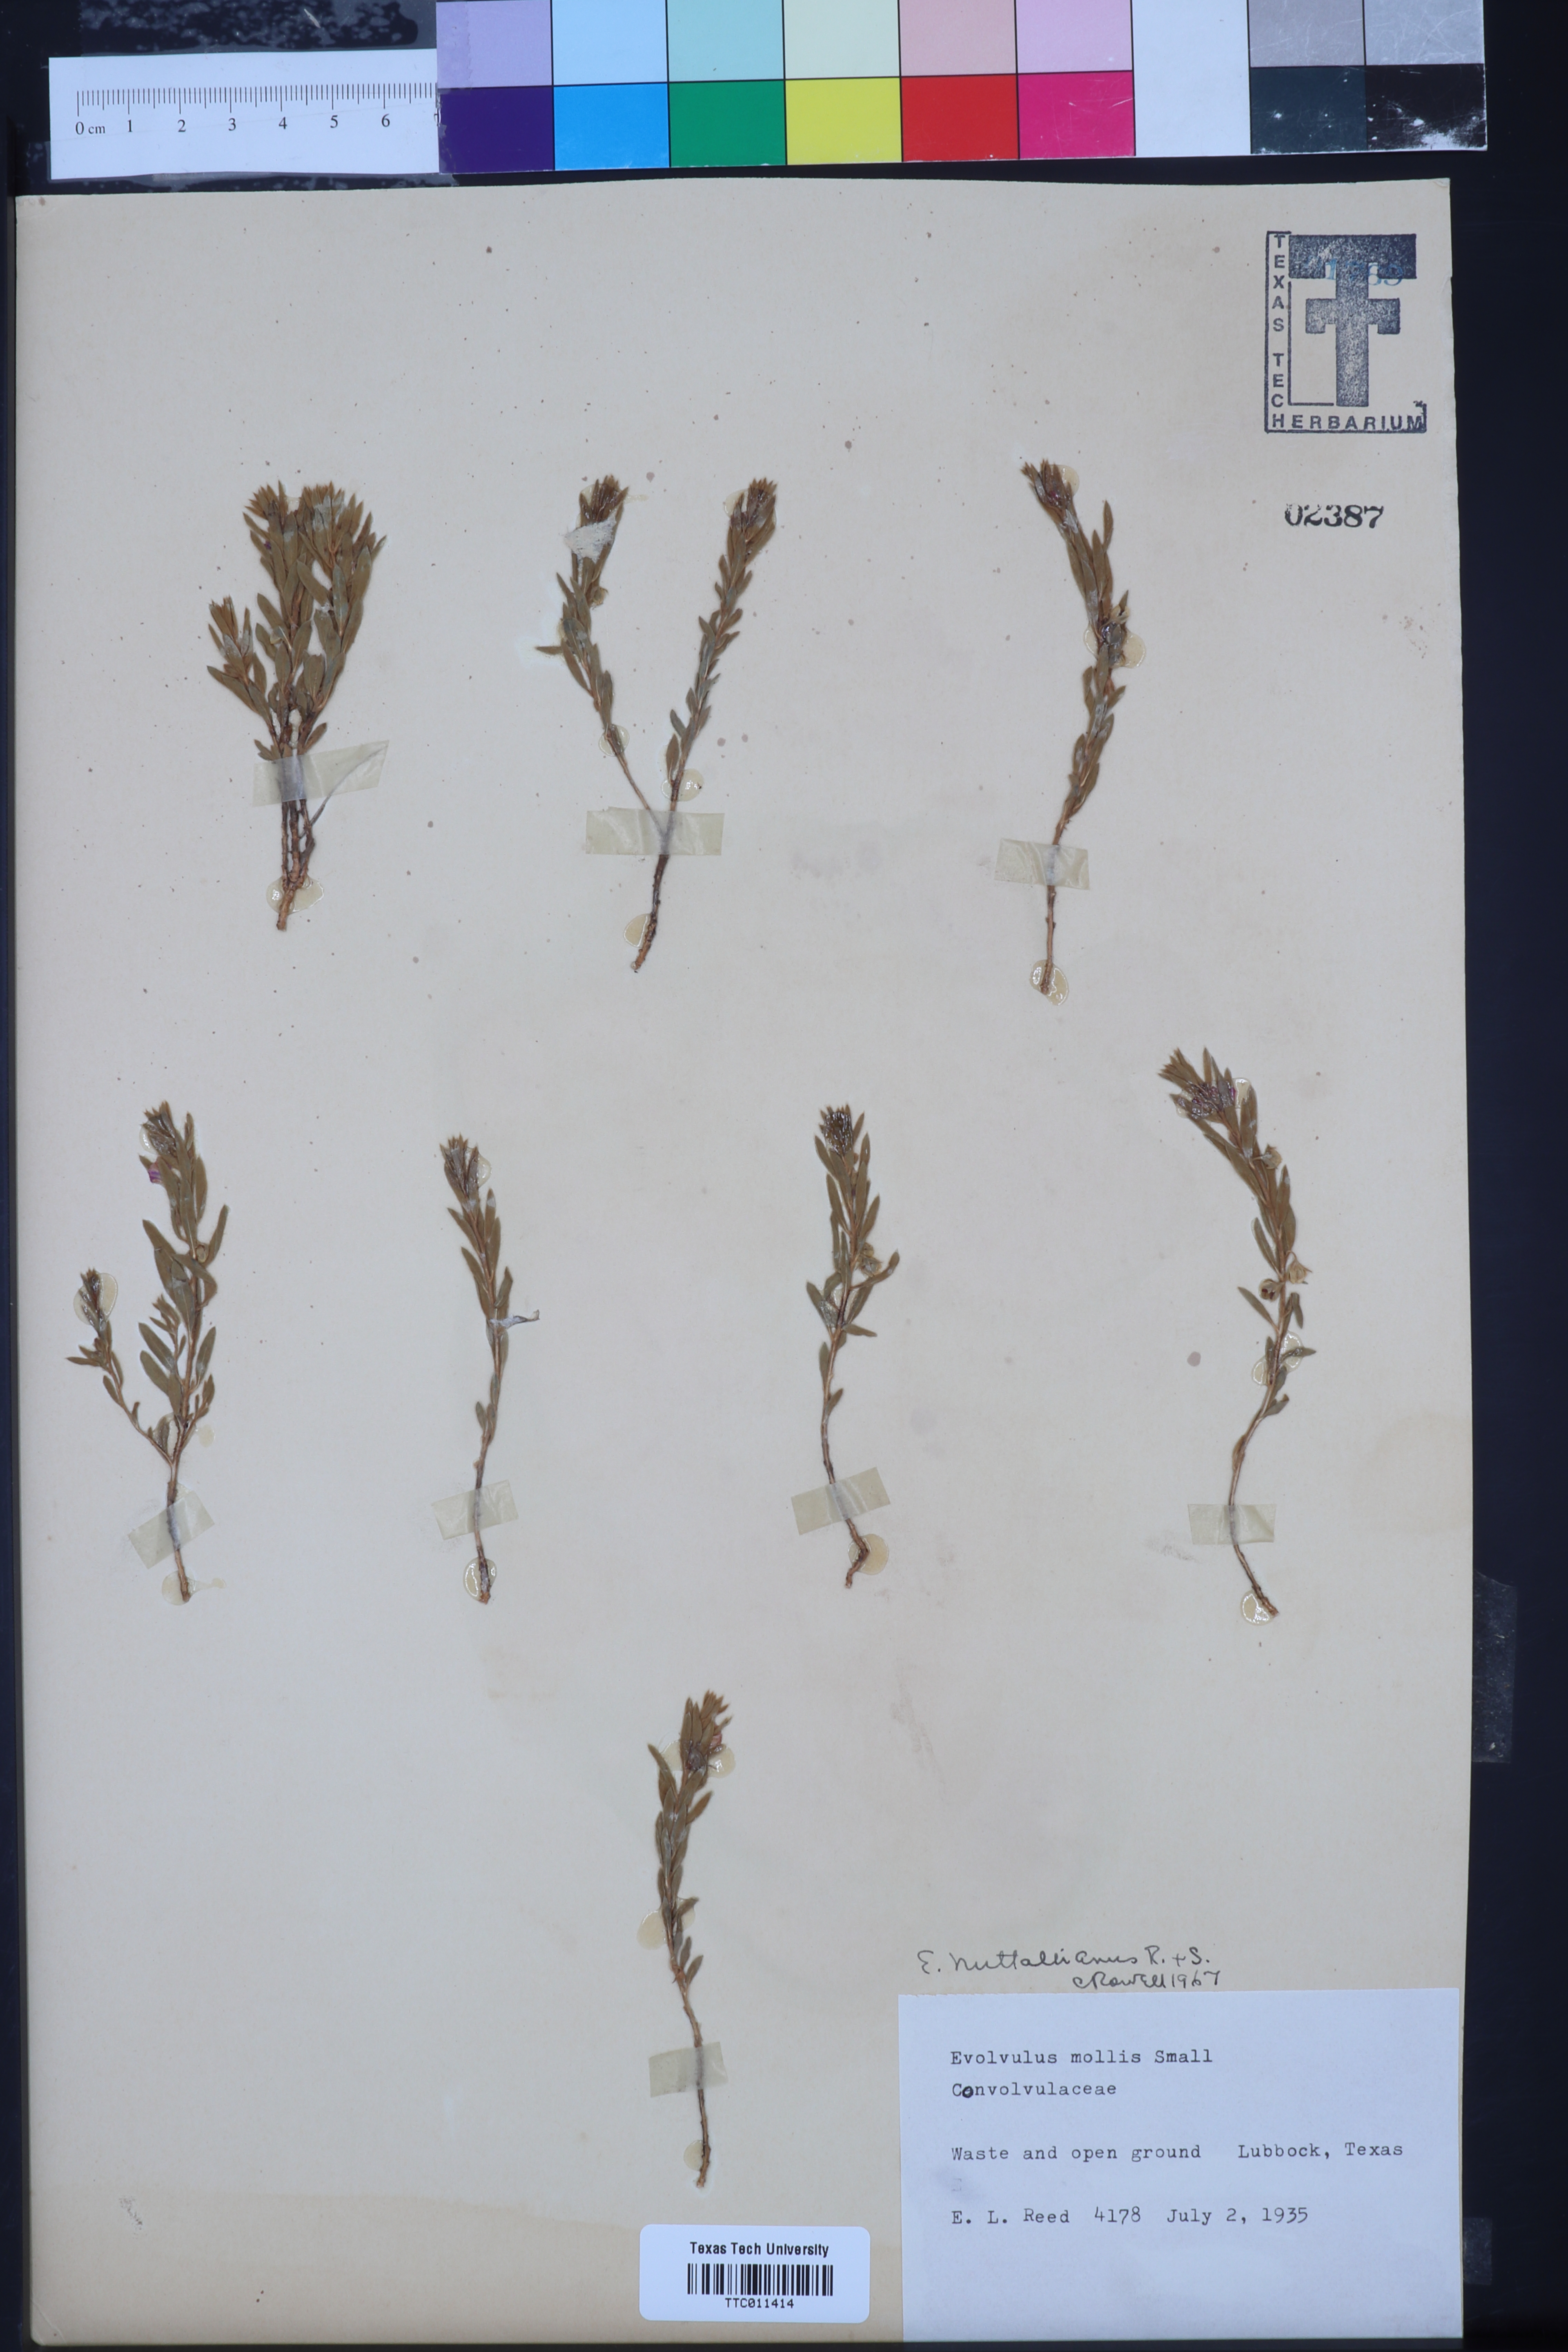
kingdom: Plantae
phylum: Tracheophyta
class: Magnoliopsida
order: Solanales
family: Convolvulaceae
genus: Evolvulus
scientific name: Evolvulus nuttallianus
